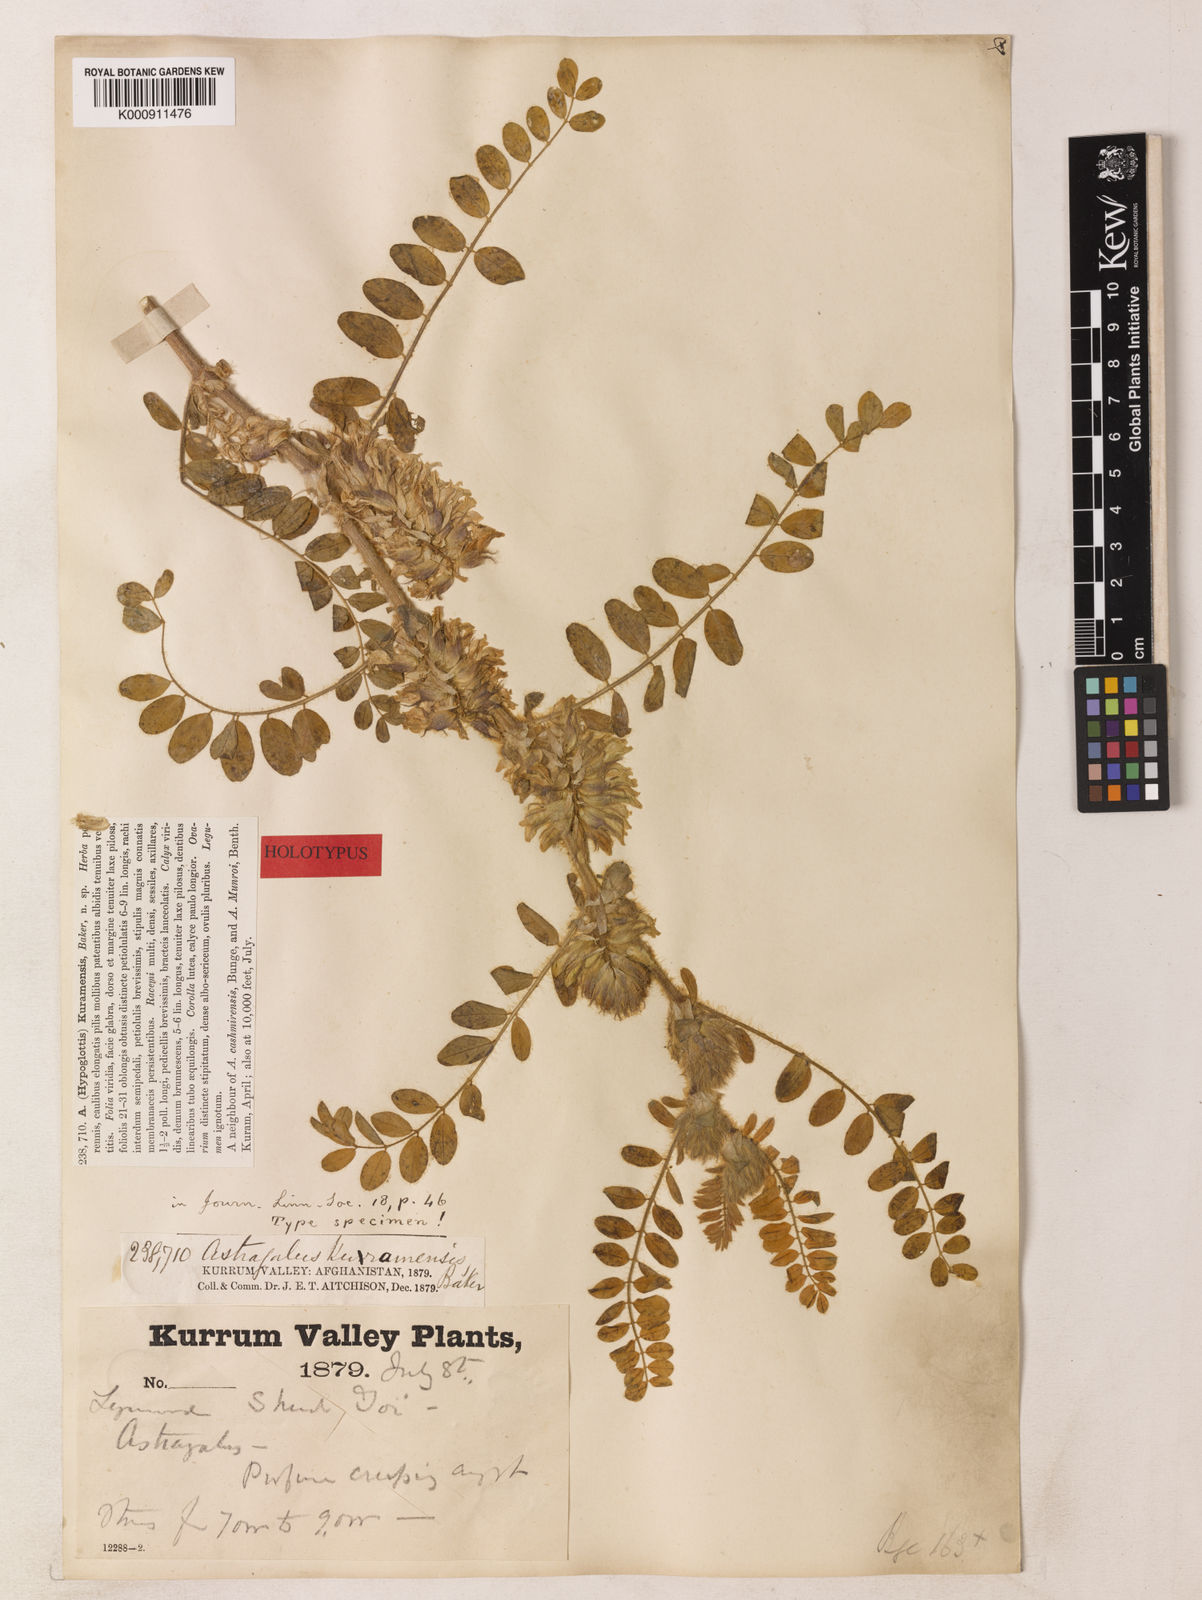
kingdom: Plantae
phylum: Tracheophyta
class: Magnoliopsida
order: Fabales
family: Fabaceae
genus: Astragalus
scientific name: Astragalus kuramensis
